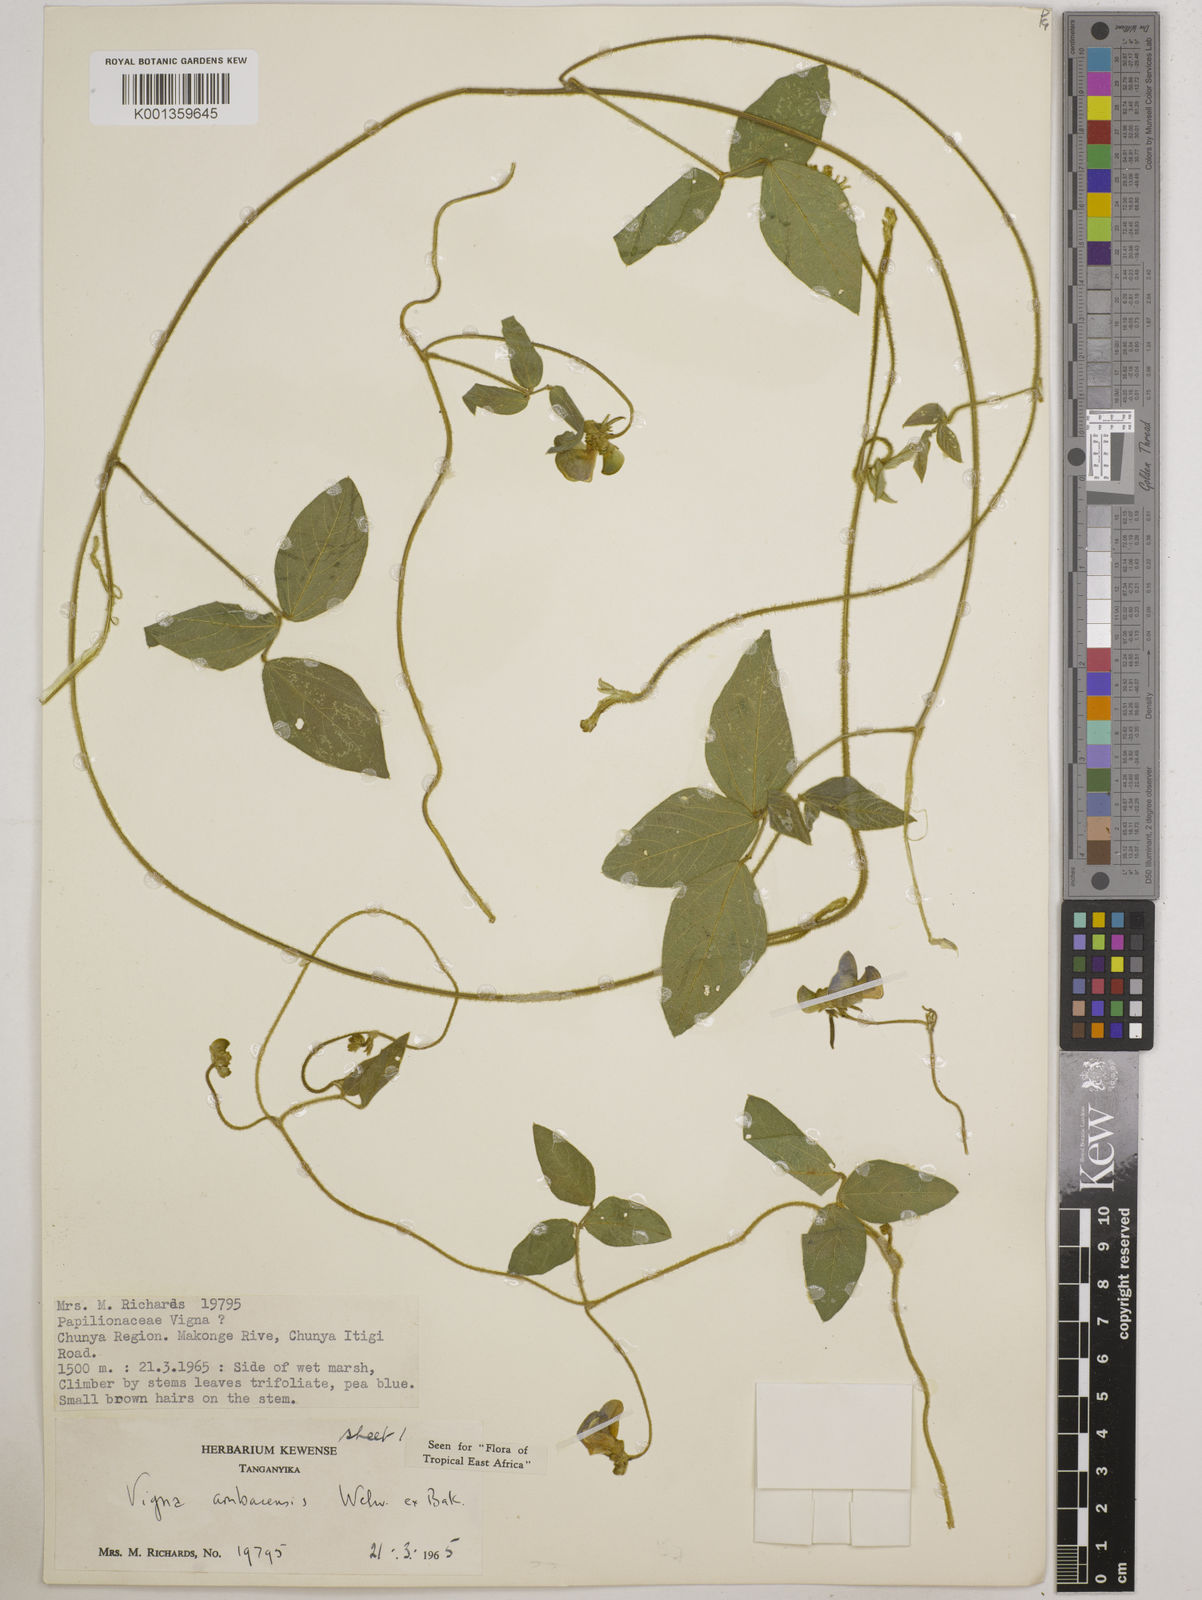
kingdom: Plantae
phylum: Tracheophyta
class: Magnoliopsida
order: Fabales
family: Fabaceae
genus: Vigna
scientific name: Vigna ambacensis
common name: Tsarkiyan zomo
